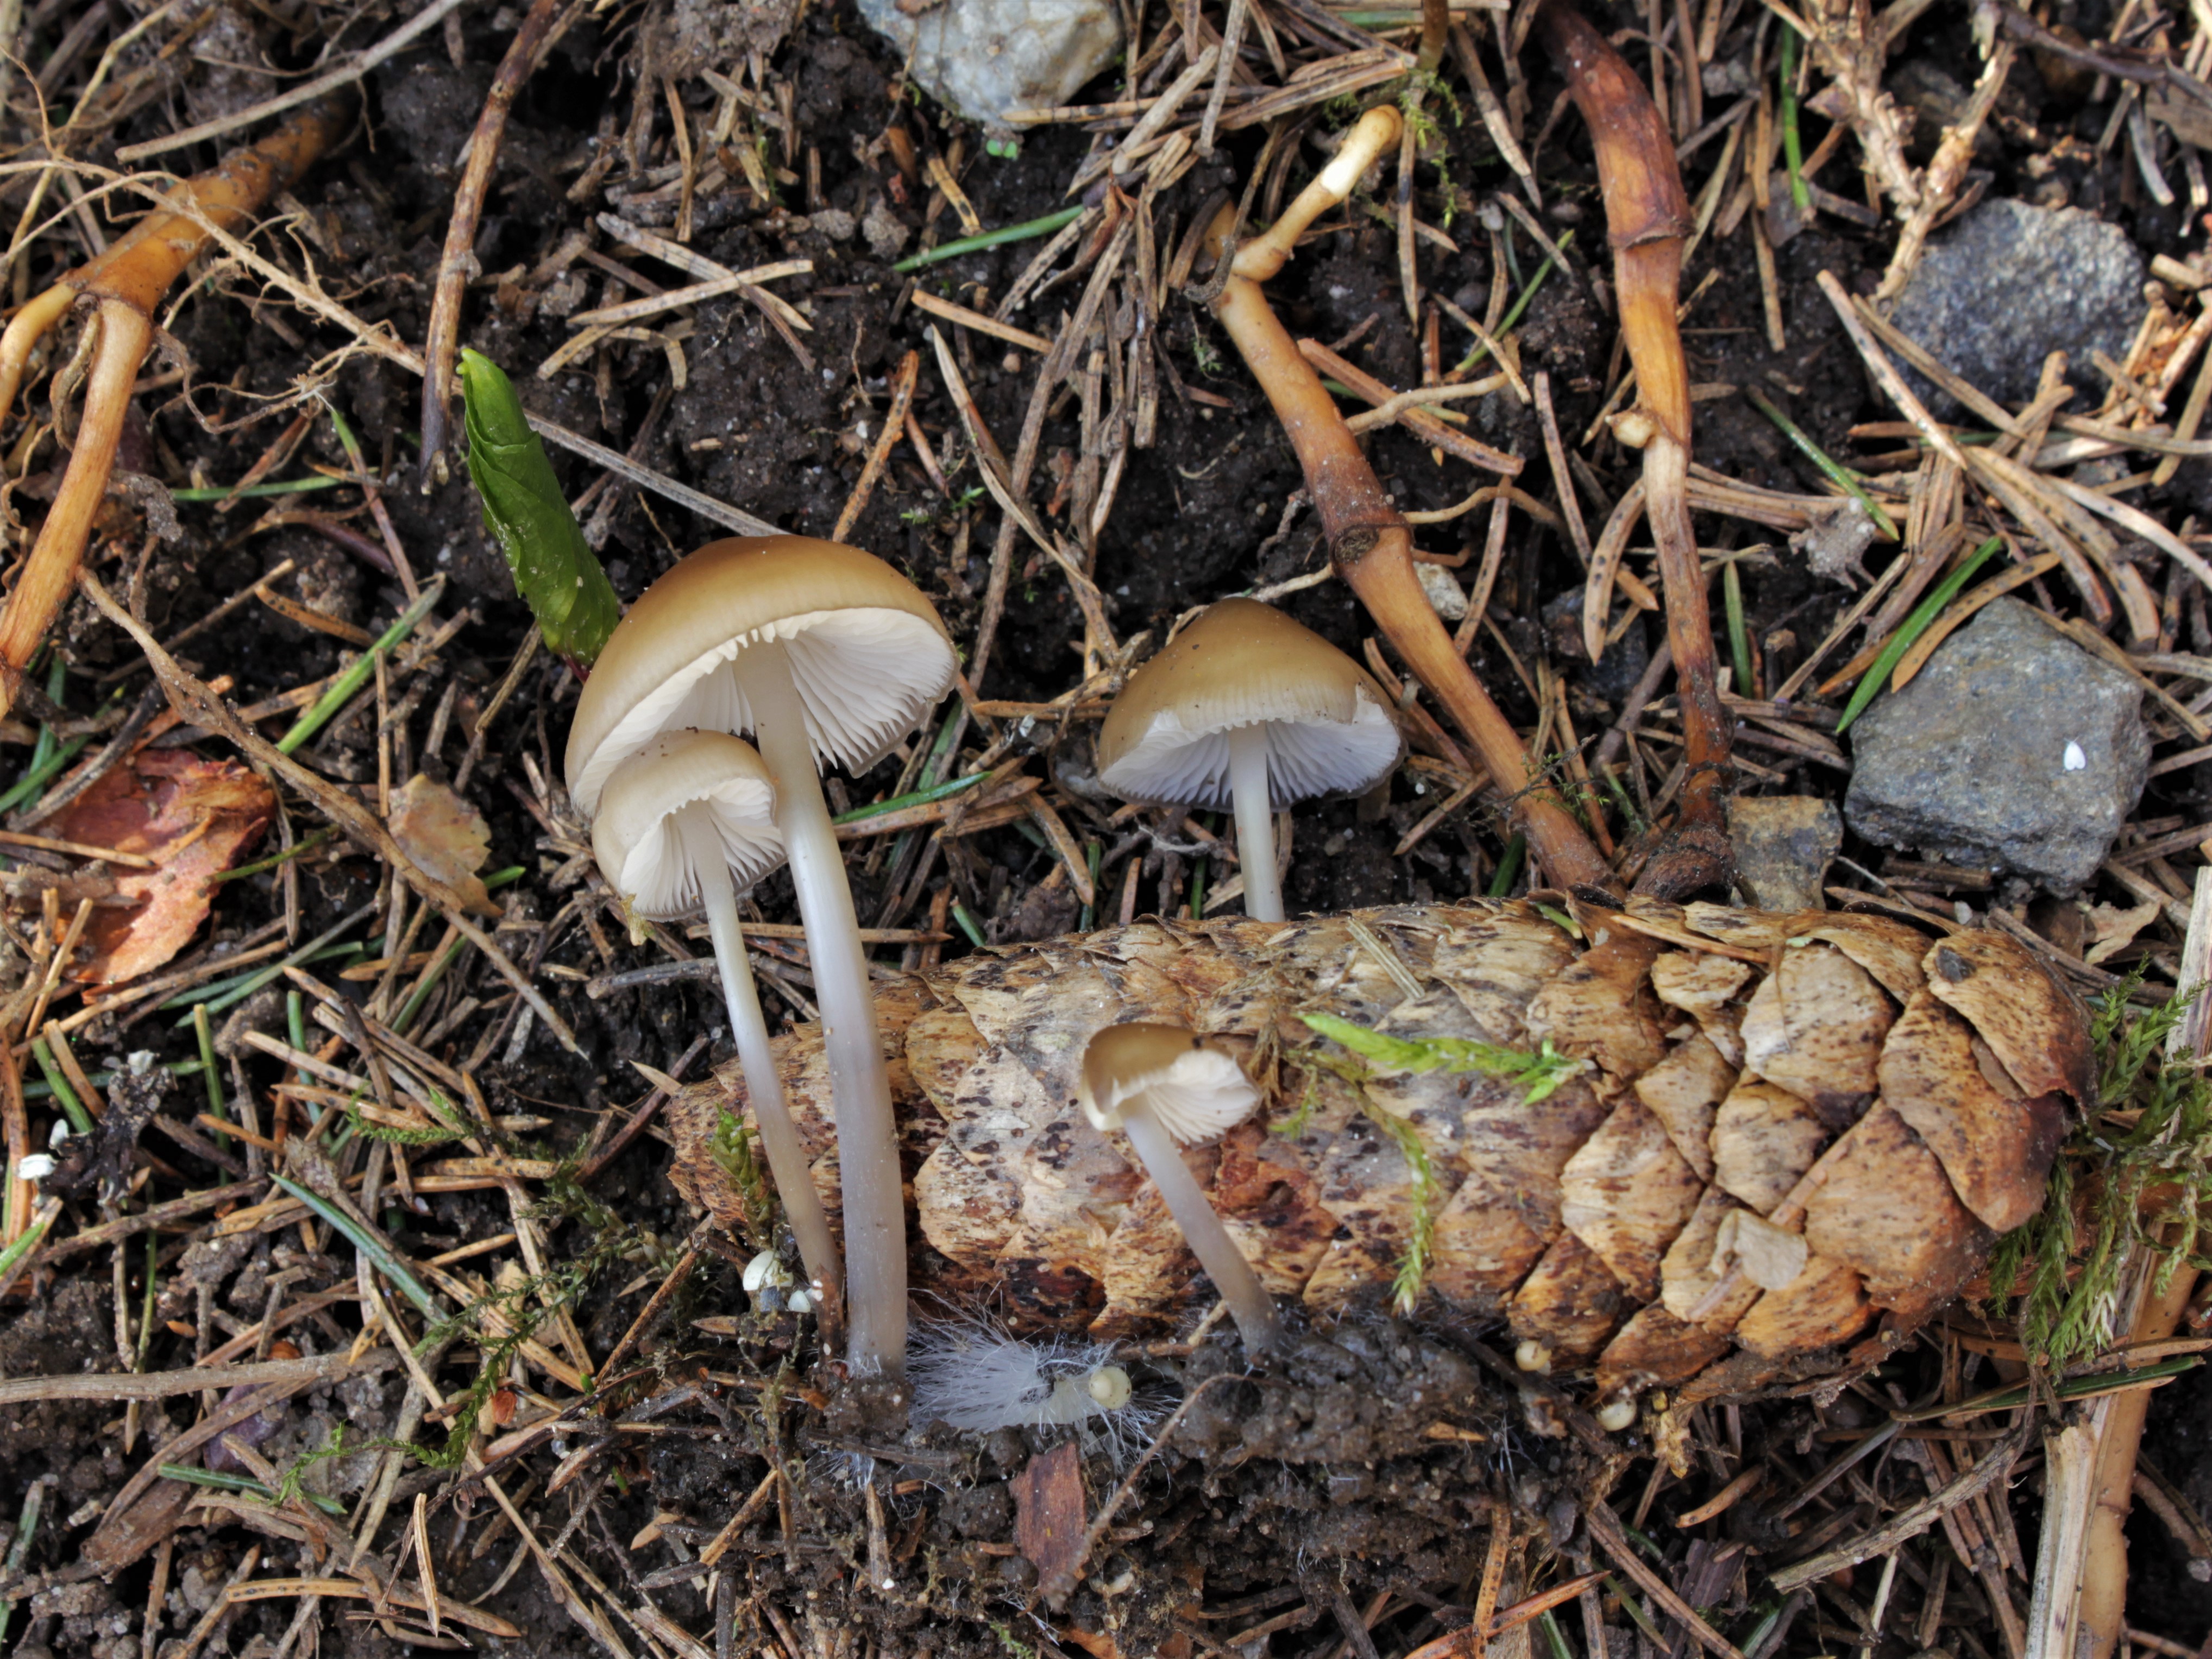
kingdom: Fungi
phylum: Basidiomycota
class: Agaricomycetes
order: Agaricales
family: Mycenaceae
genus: Mycena
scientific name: Mycena plumipes
